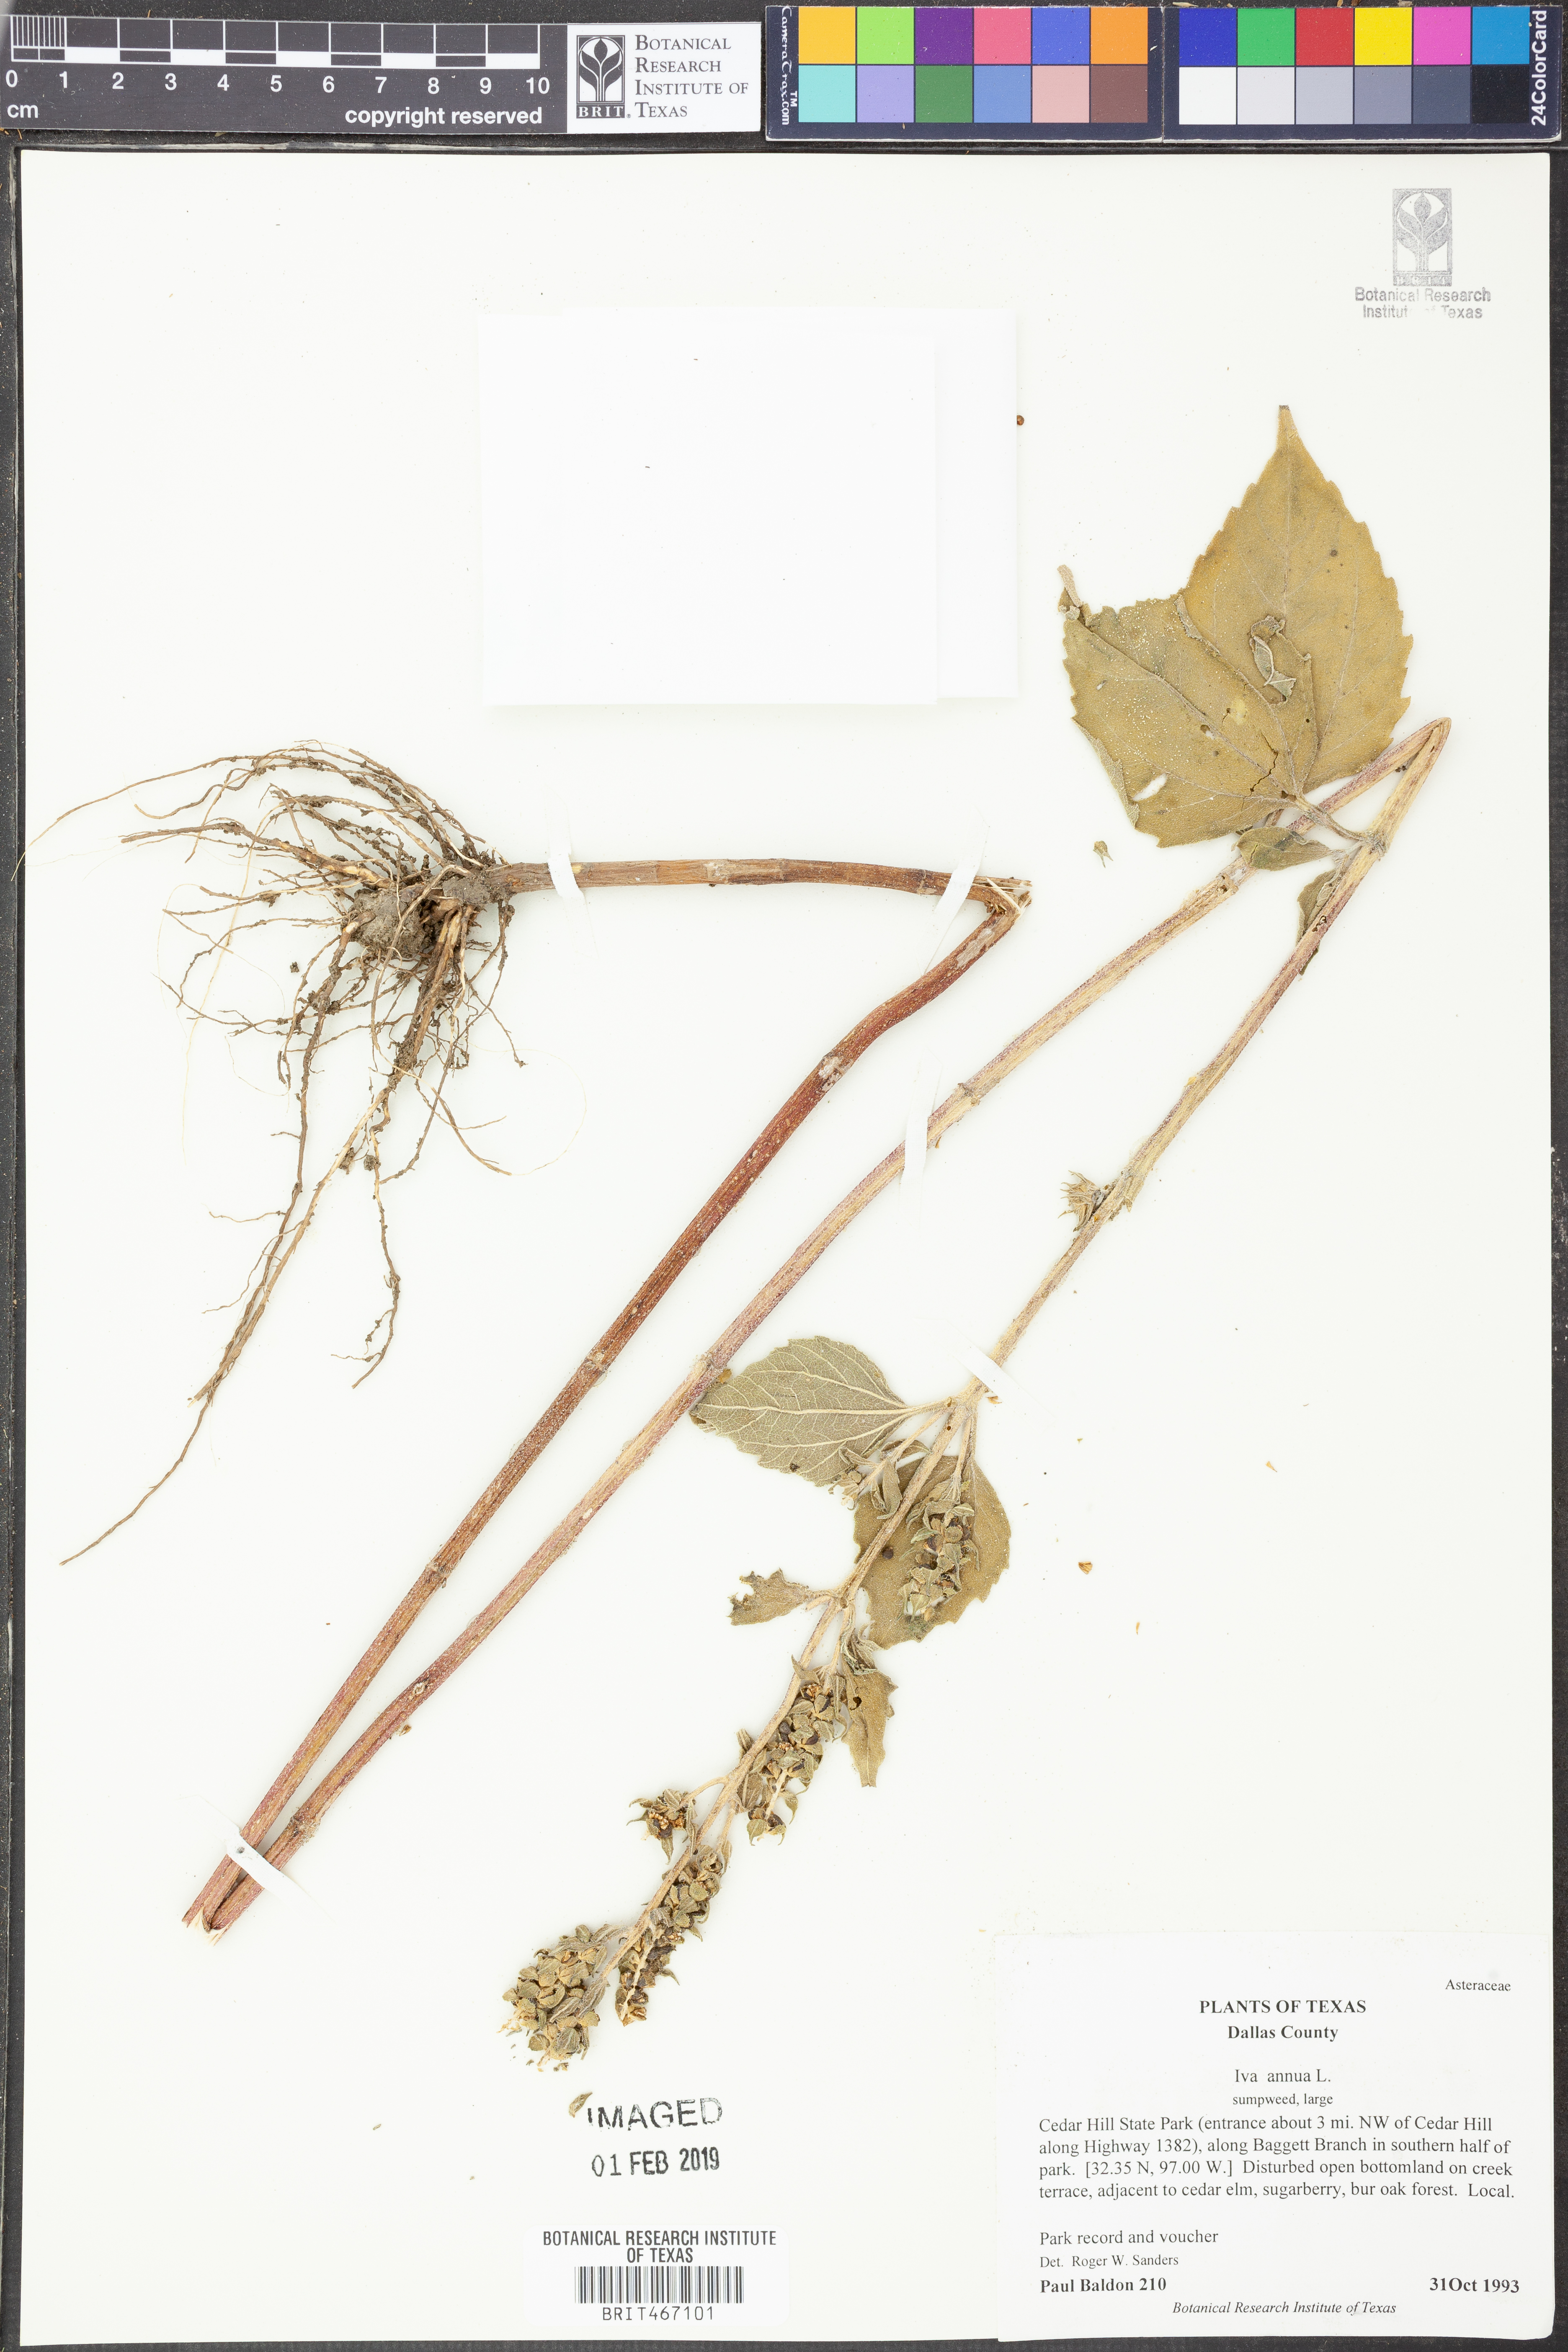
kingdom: Plantae
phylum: Tracheophyta
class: Magnoliopsida
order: Asterales
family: Asteraceae
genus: Iva
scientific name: Iva annua
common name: Marsh-elder
